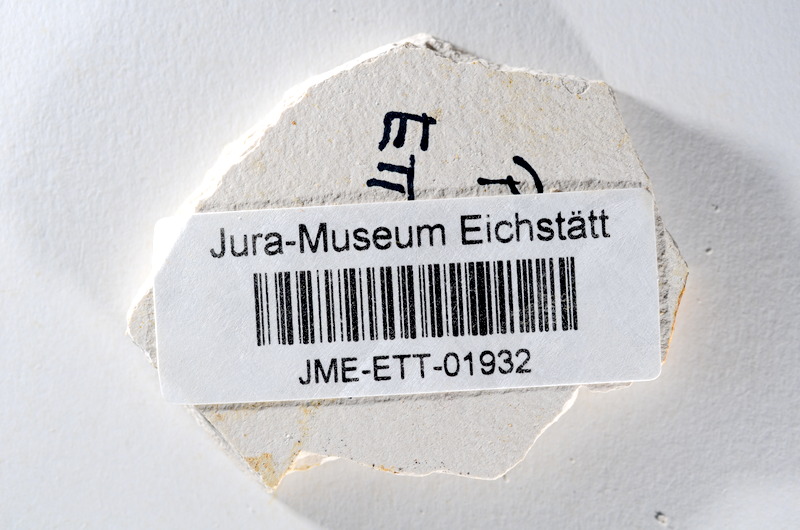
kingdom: Animalia
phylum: Chordata
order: Salmoniformes
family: Orthogonikleithridae
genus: Orthogonikleithrus
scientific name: Orthogonikleithrus hoelli
